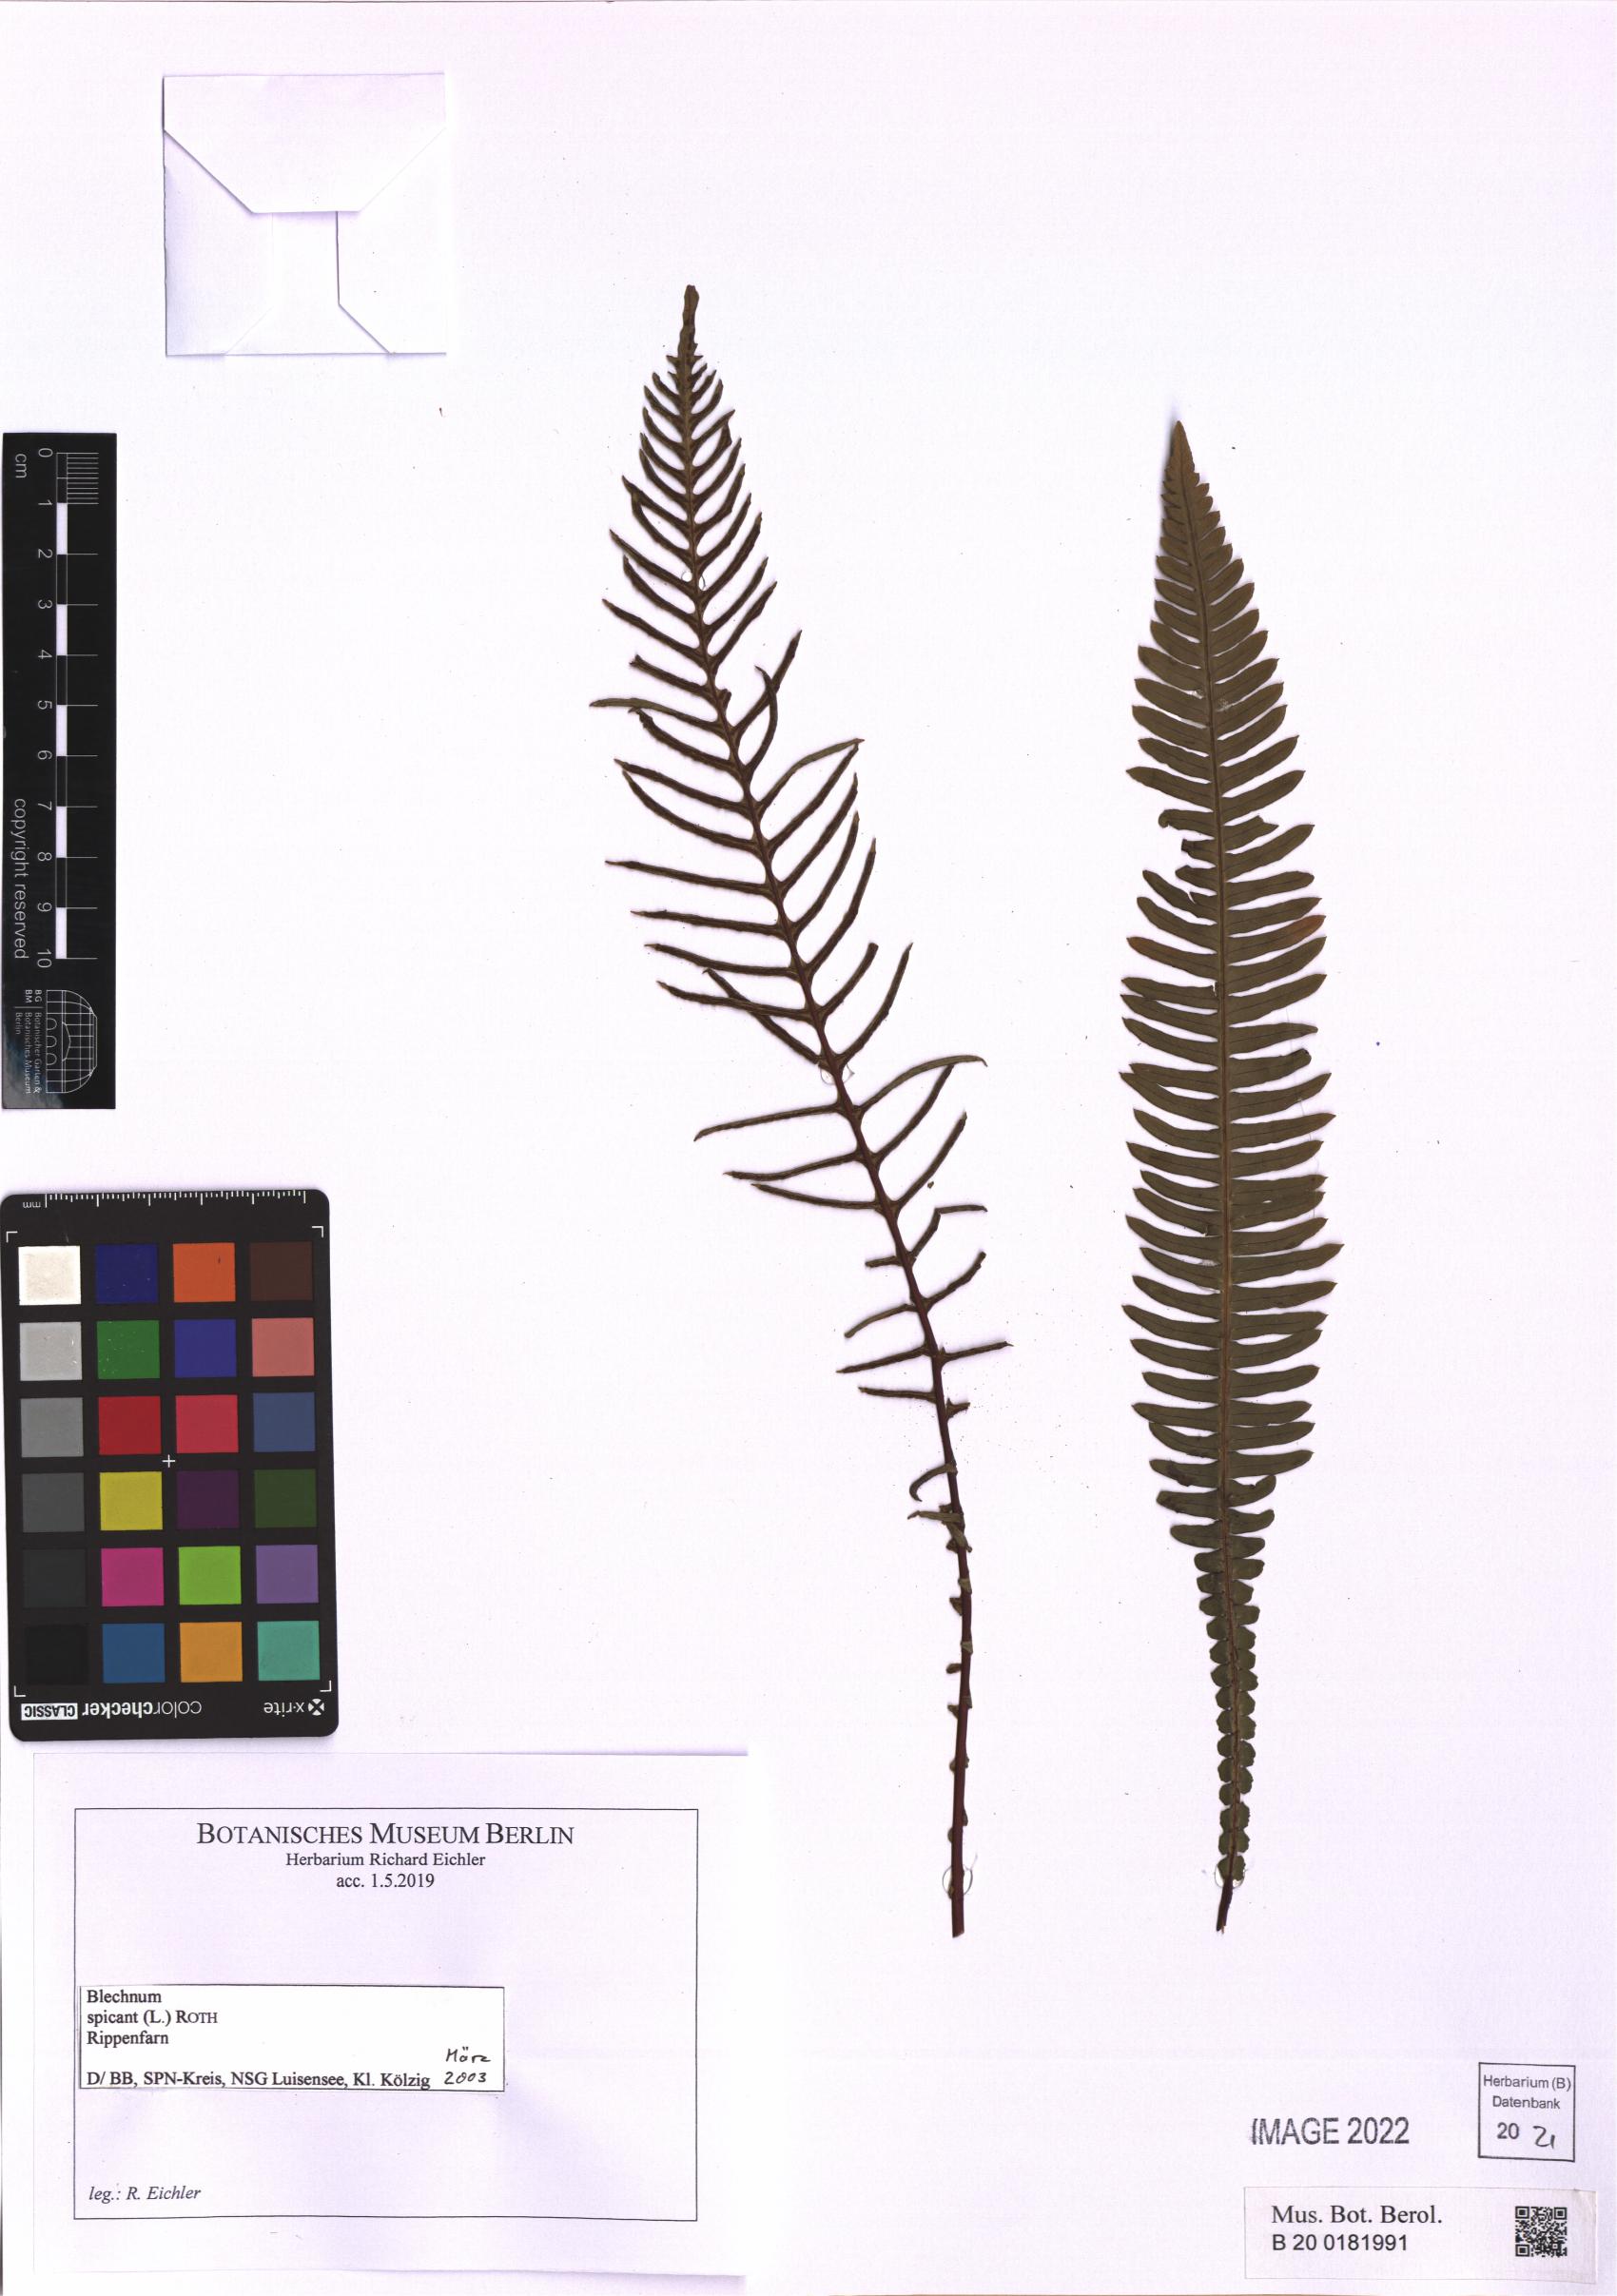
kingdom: Plantae
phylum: Tracheophyta
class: Polypodiopsida
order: Polypodiales
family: Blechnaceae
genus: Struthiopteris
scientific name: Struthiopteris spicant
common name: Deer fern
